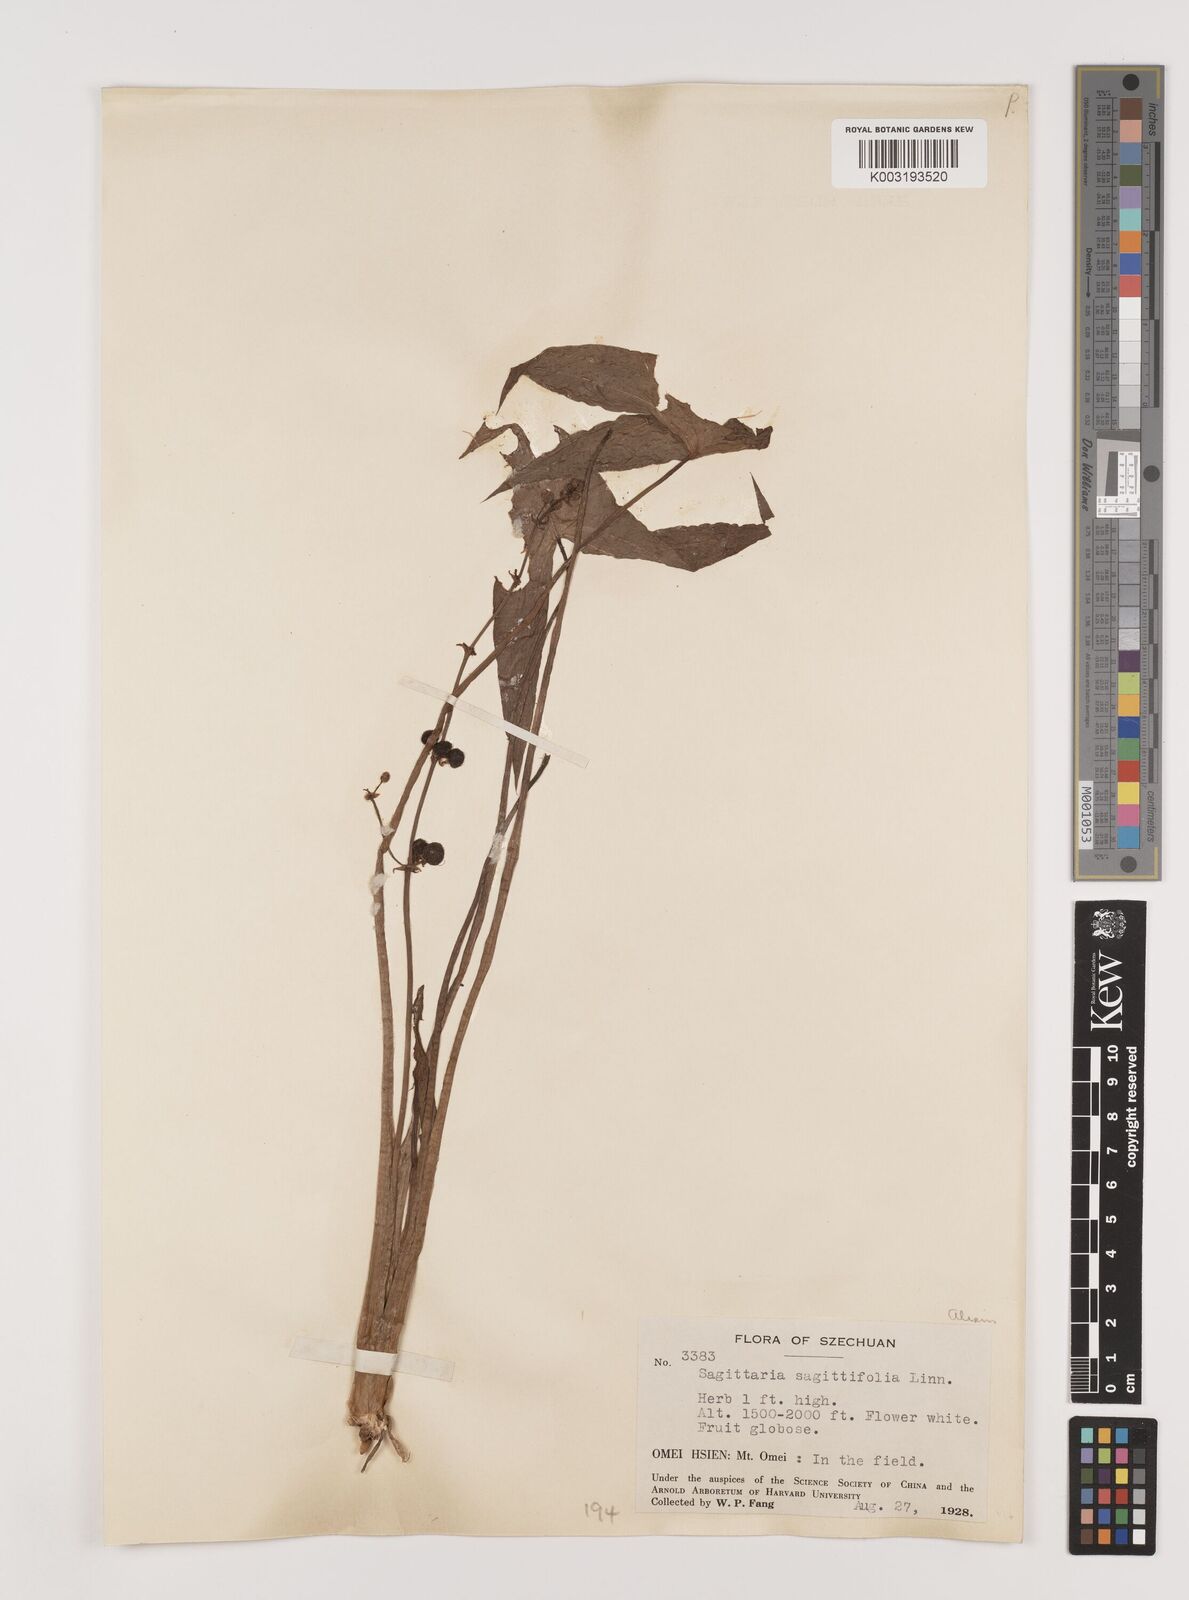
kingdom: Plantae
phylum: Tracheophyta
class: Liliopsida
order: Alismatales
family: Alismataceae
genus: Sagittaria
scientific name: Sagittaria sagittifolia
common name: Arrowhead
